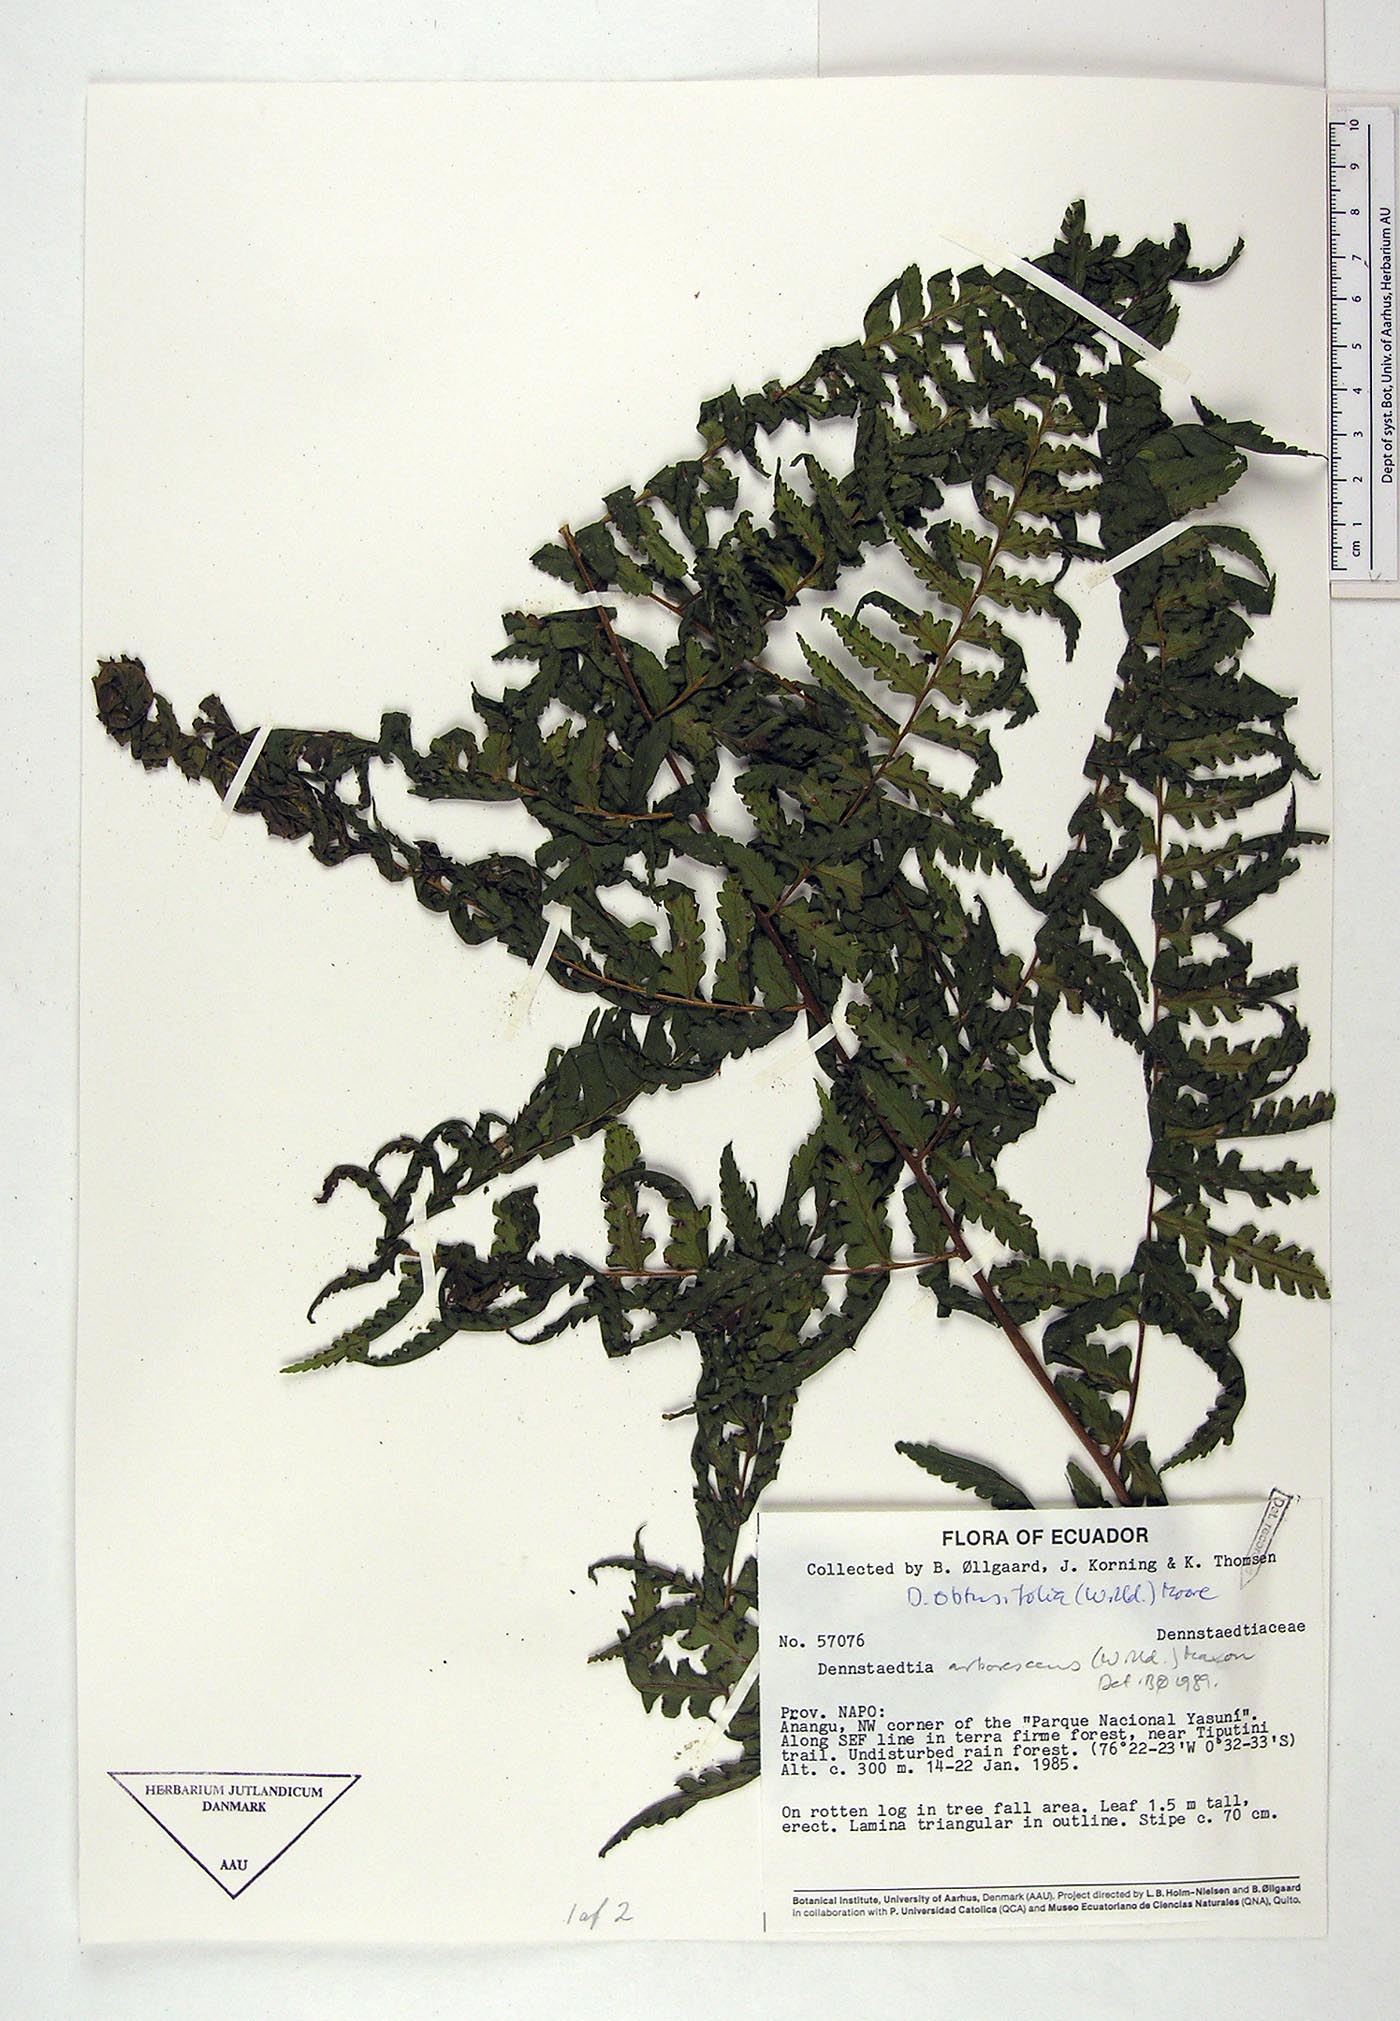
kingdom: Plantae
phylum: Tracheophyta
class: Polypodiopsida
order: Polypodiales
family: Dennstaedtiaceae
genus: Dennstaedtia
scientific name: Dennstaedtia obtusifolia
